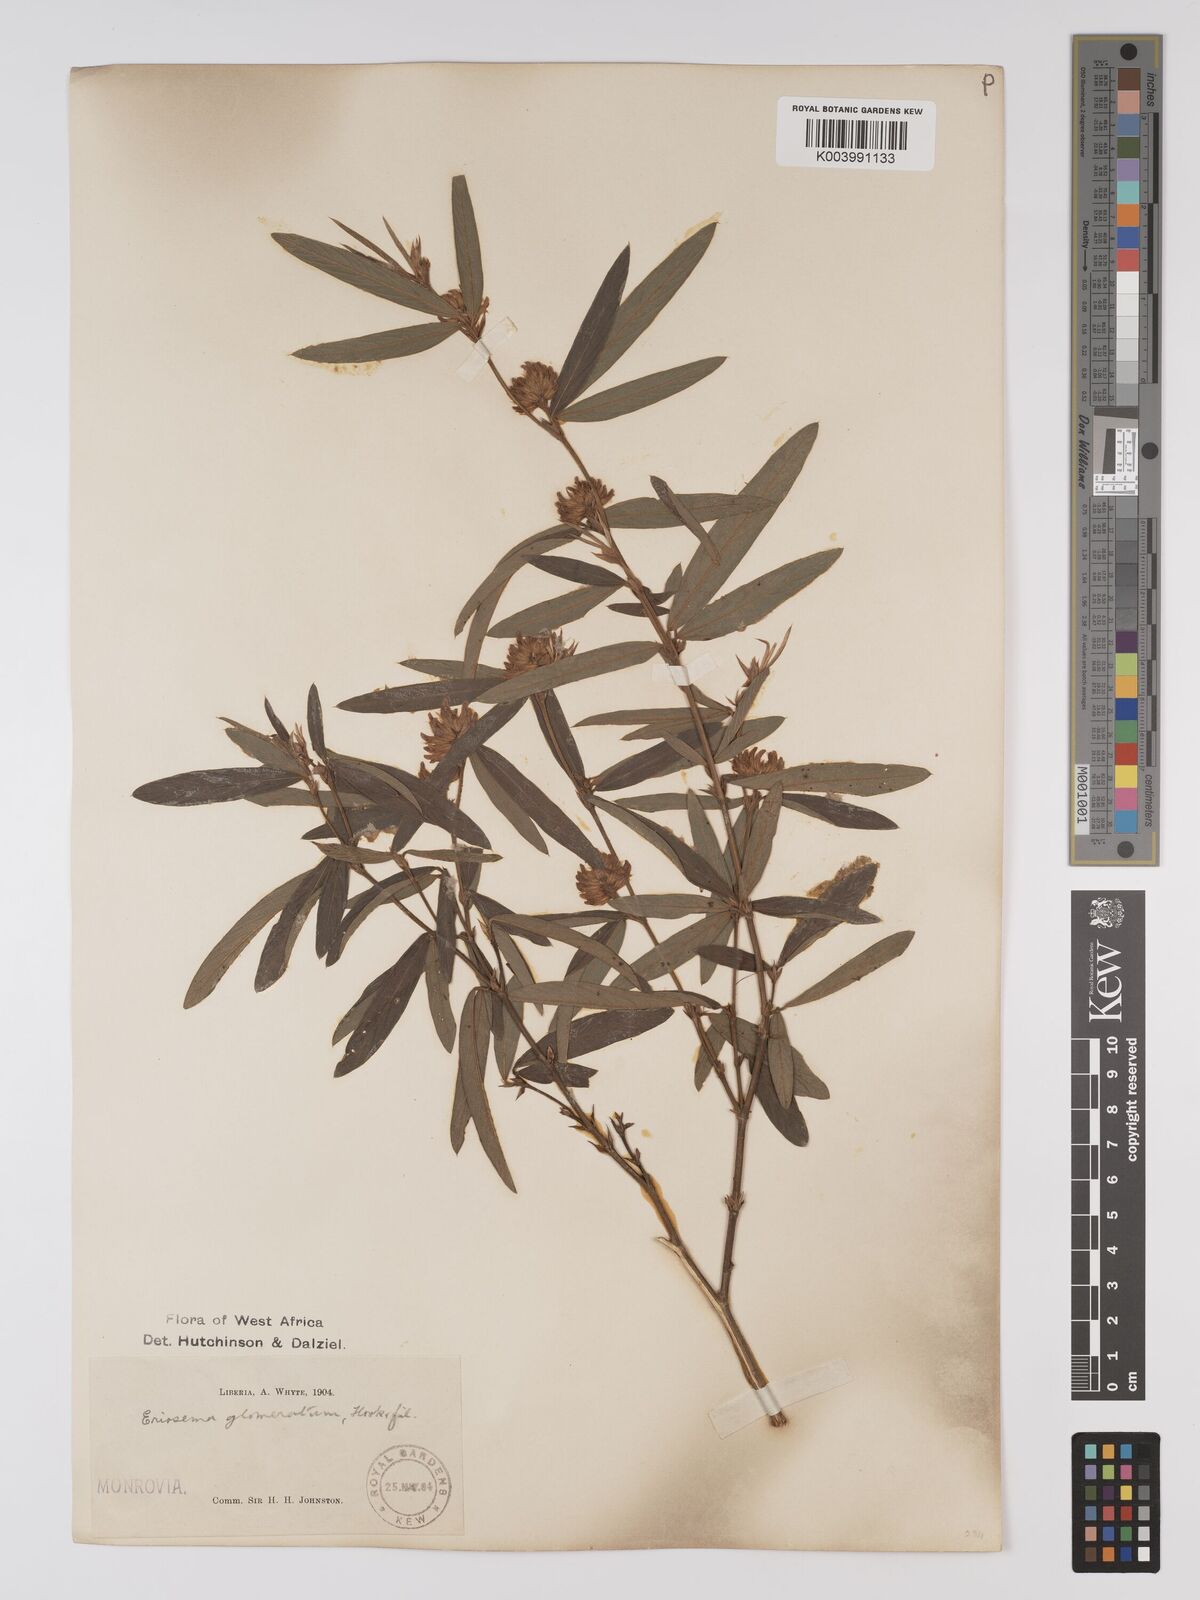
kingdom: Plantae
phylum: Tracheophyta
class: Magnoliopsida
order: Fabales
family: Fabaceae
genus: Eriosema
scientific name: Eriosema glomeratum
